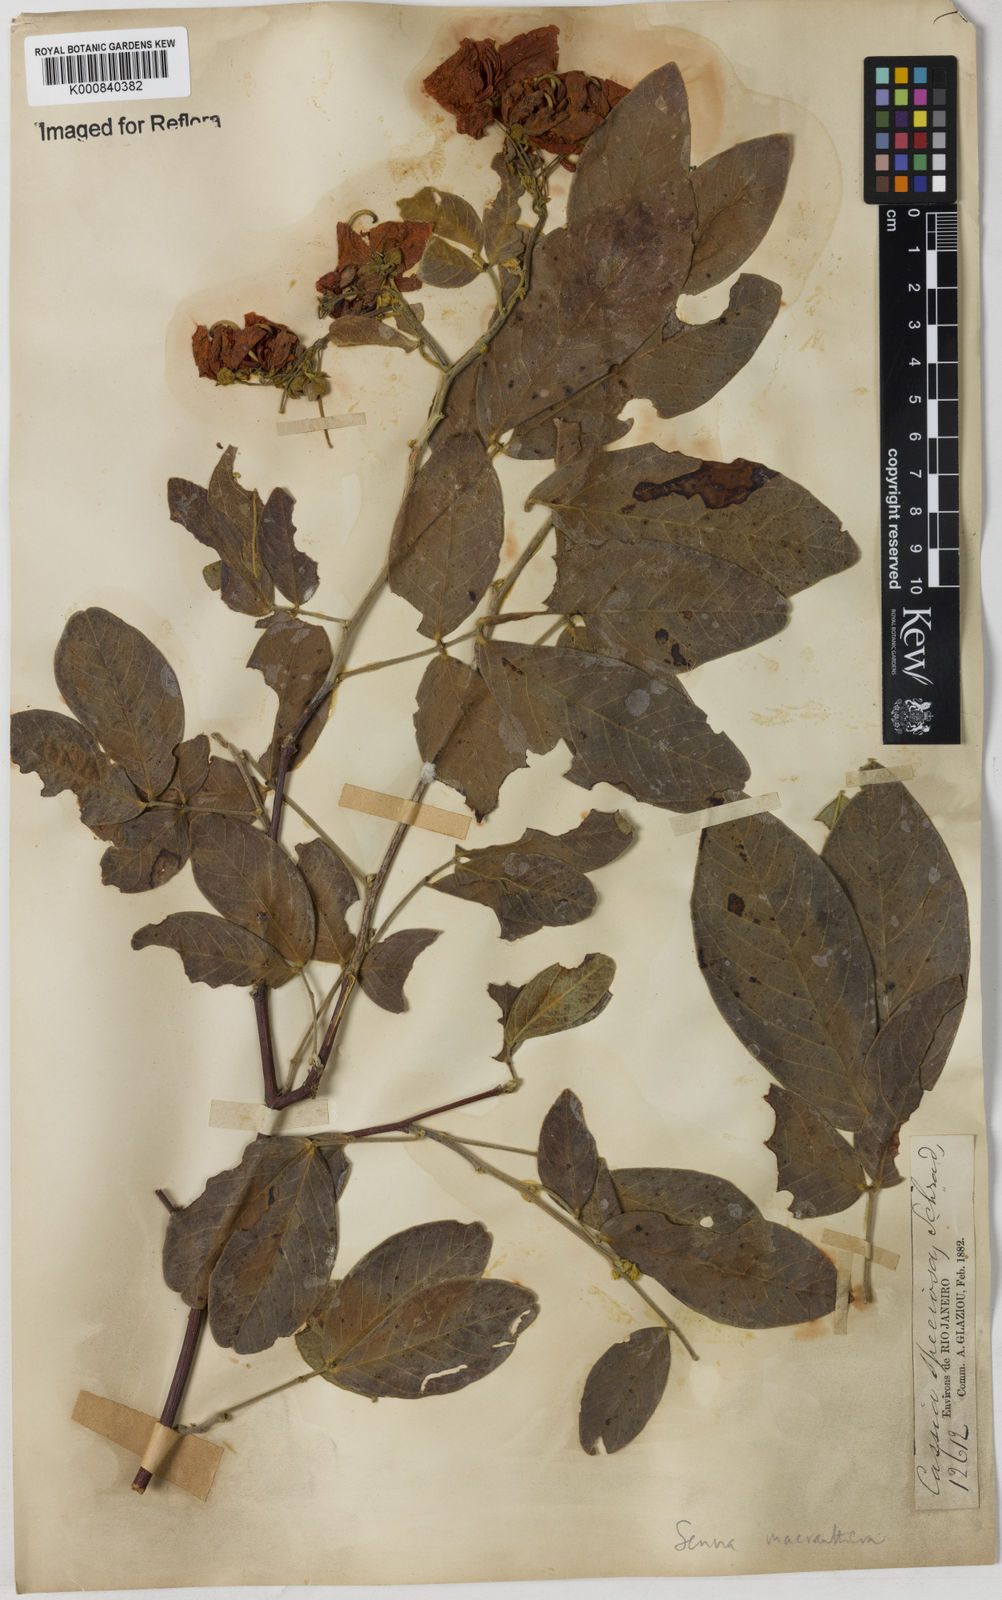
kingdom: Plantae
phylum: Tracheophyta
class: Magnoliopsida
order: Fabales
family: Fabaceae
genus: Senna
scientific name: Senna macranthera
